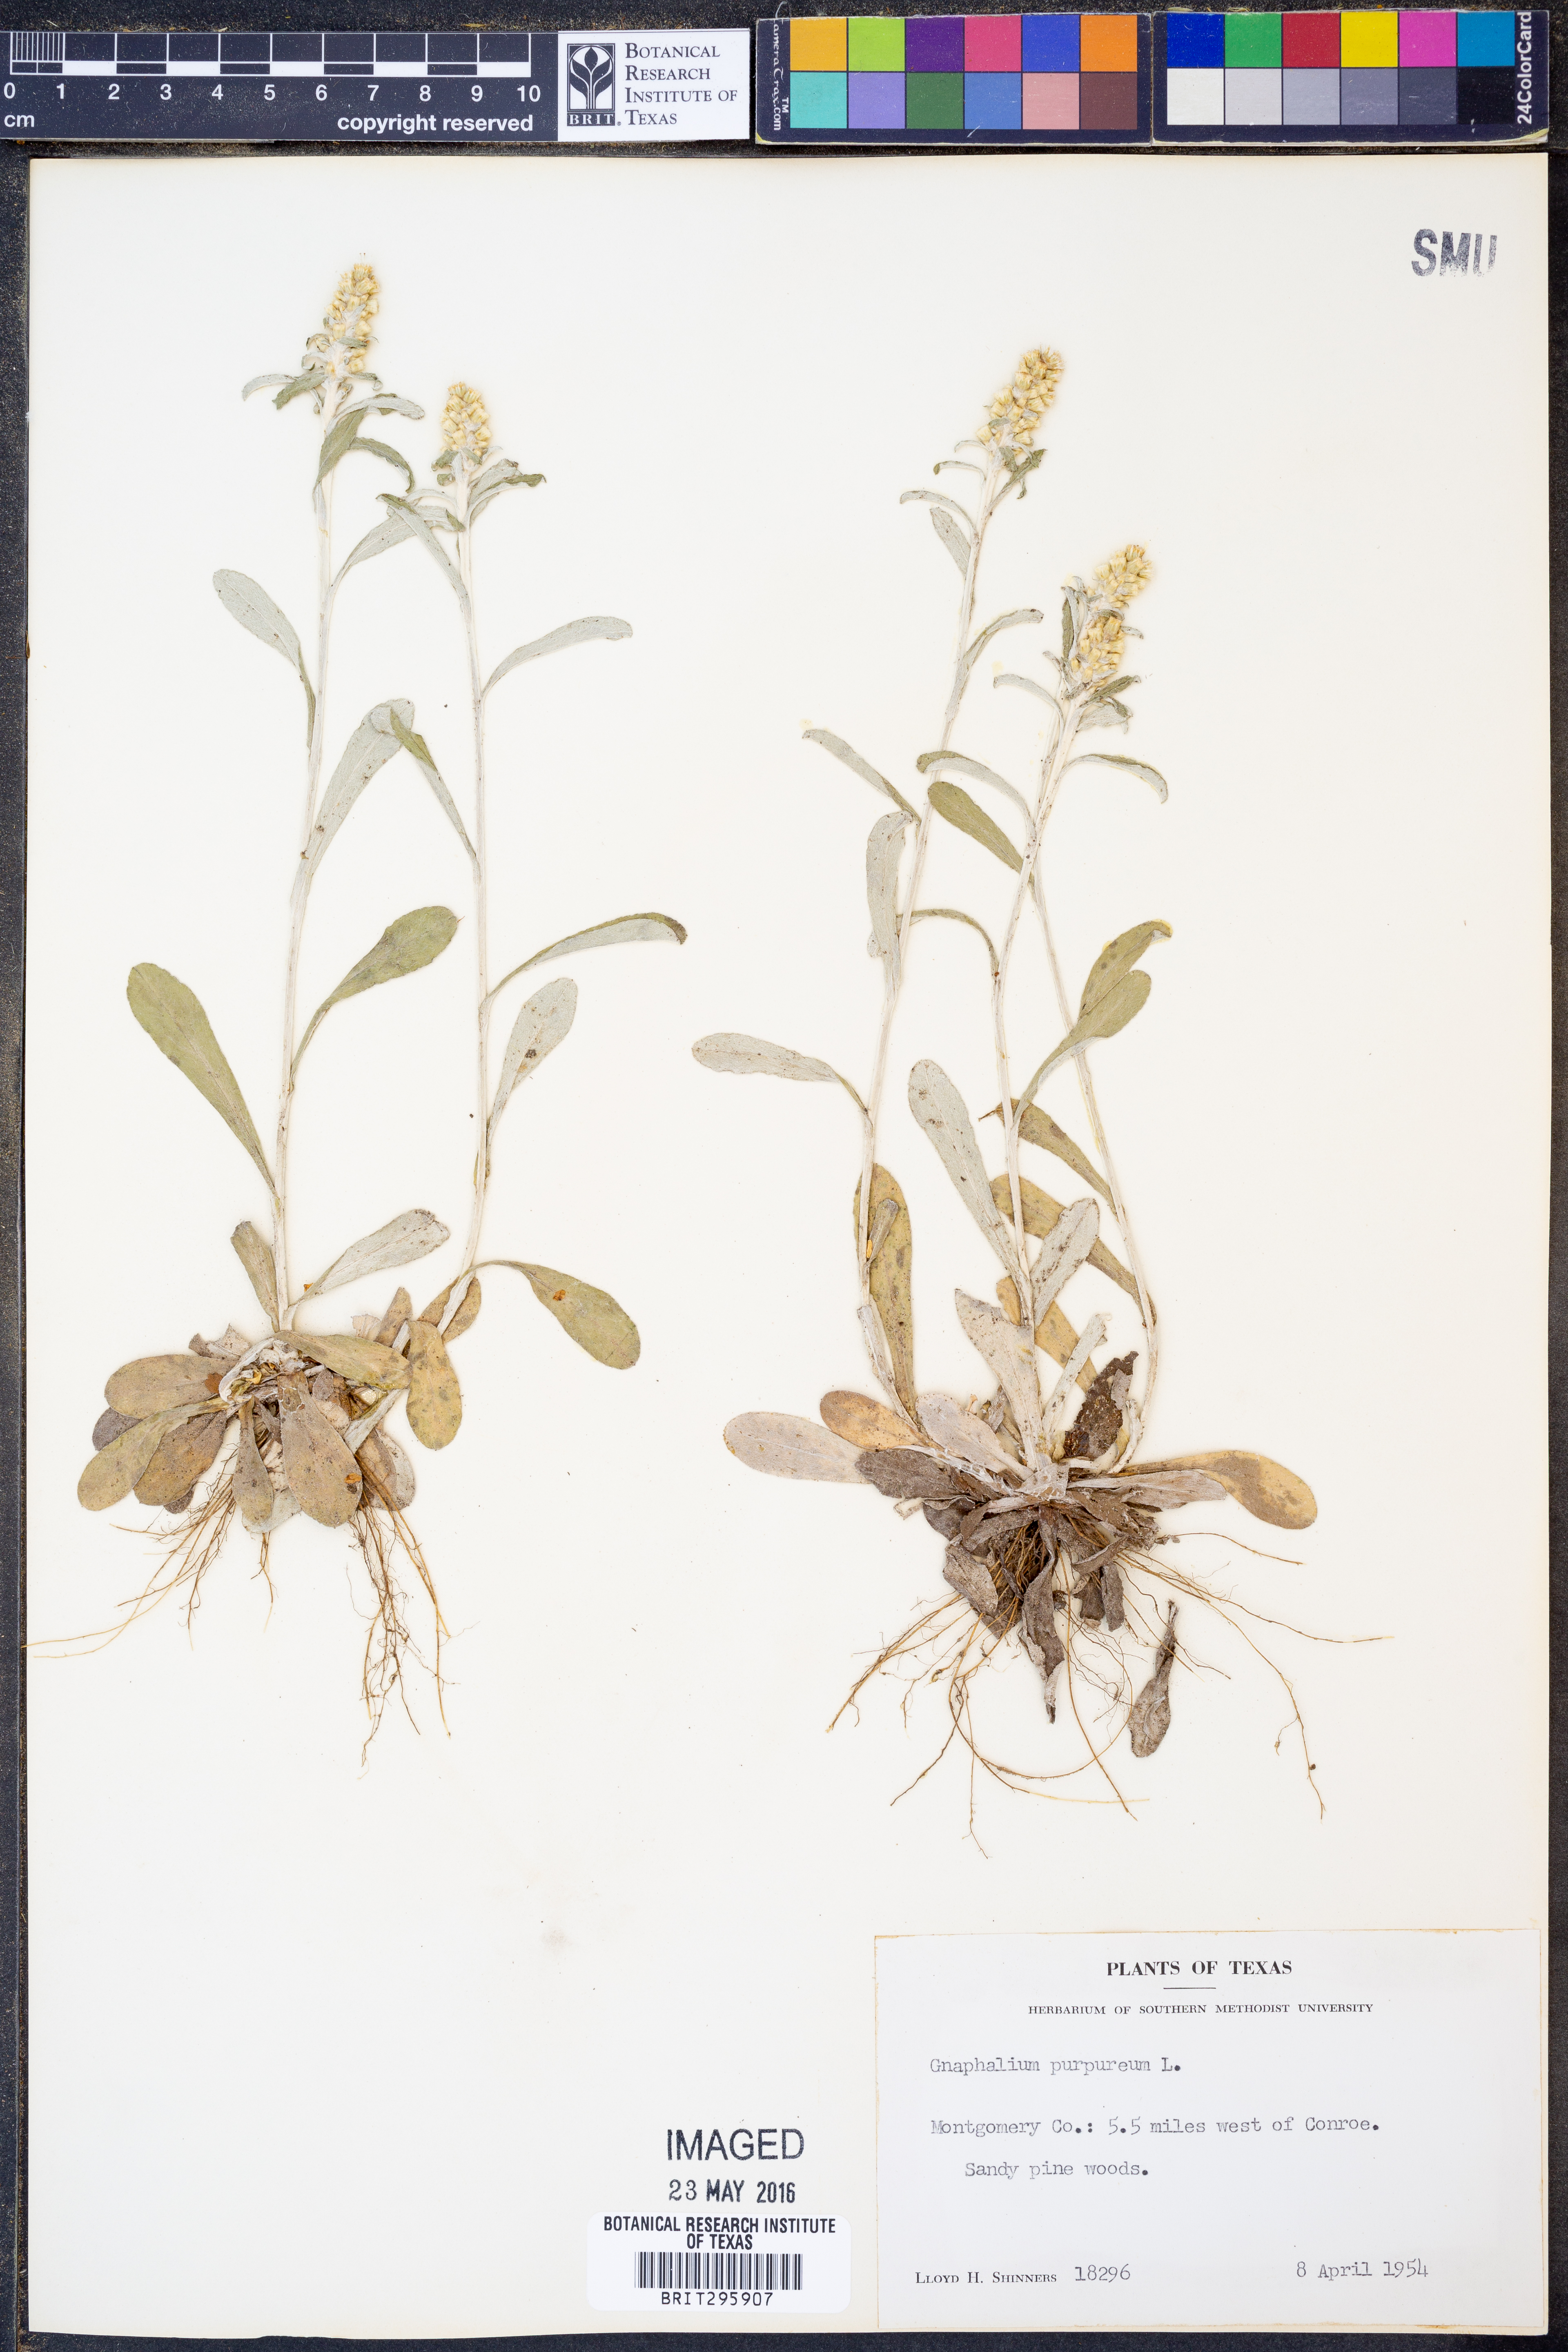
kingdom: Plantae
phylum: Tracheophyta
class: Magnoliopsida
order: Asterales
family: Asteraceae
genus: Gamochaeta
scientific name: Gamochaeta purpurea
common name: Purple cudweed
